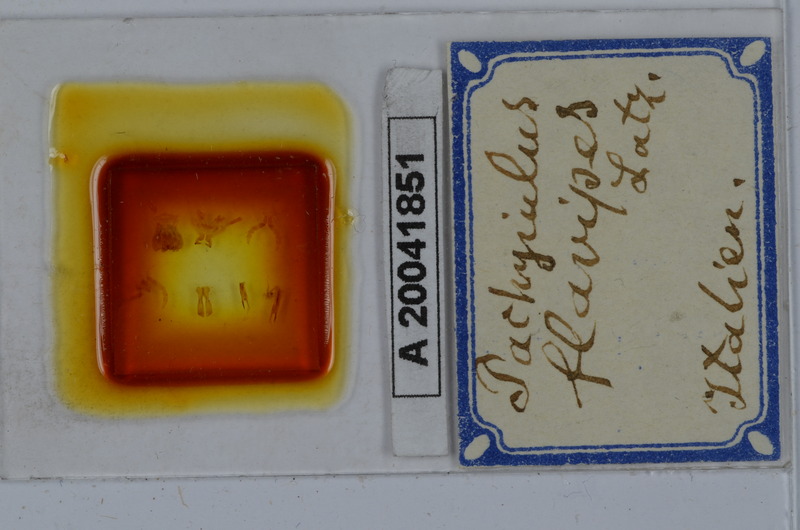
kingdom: Animalia
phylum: Arthropoda
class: Diplopoda
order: Julida
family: Julidae
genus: Pachyiulus
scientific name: Pachyiulus flavipes
